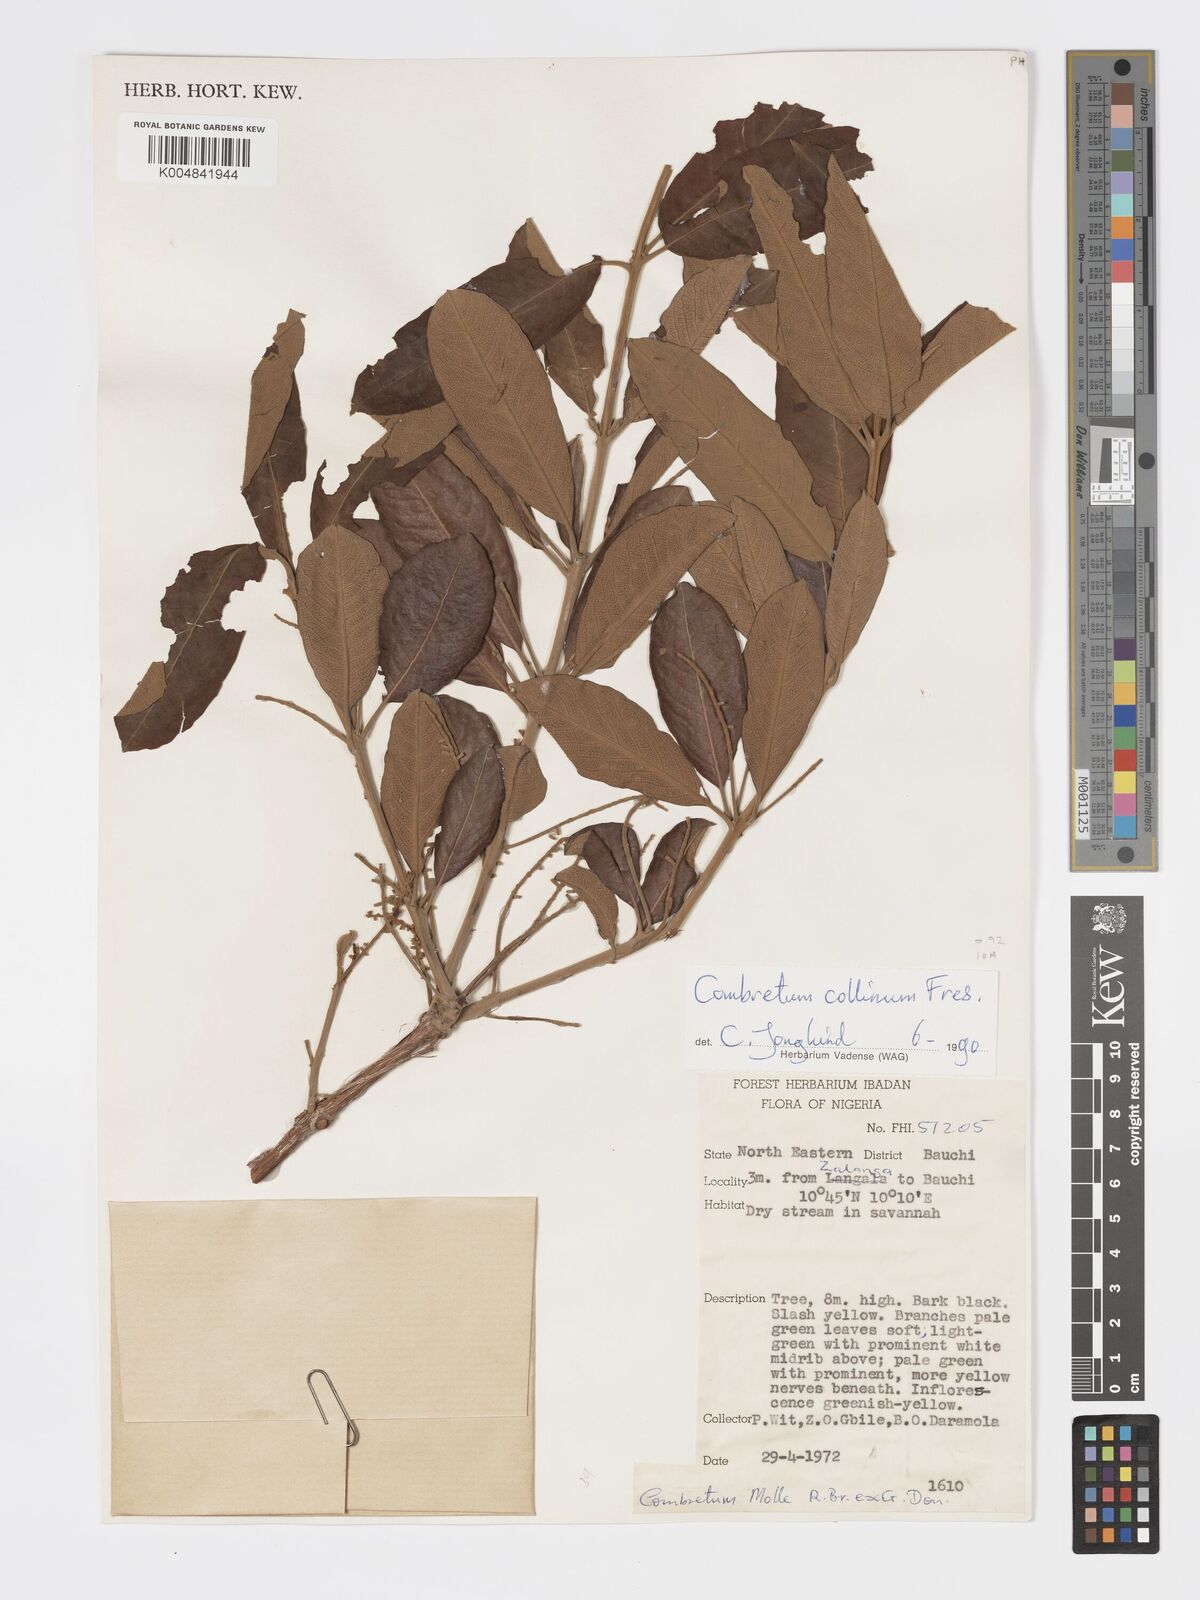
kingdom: Plantae
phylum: Tracheophyta
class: Magnoliopsida
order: Myrtales
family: Combretaceae
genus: Combretum
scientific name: Combretum collinum
